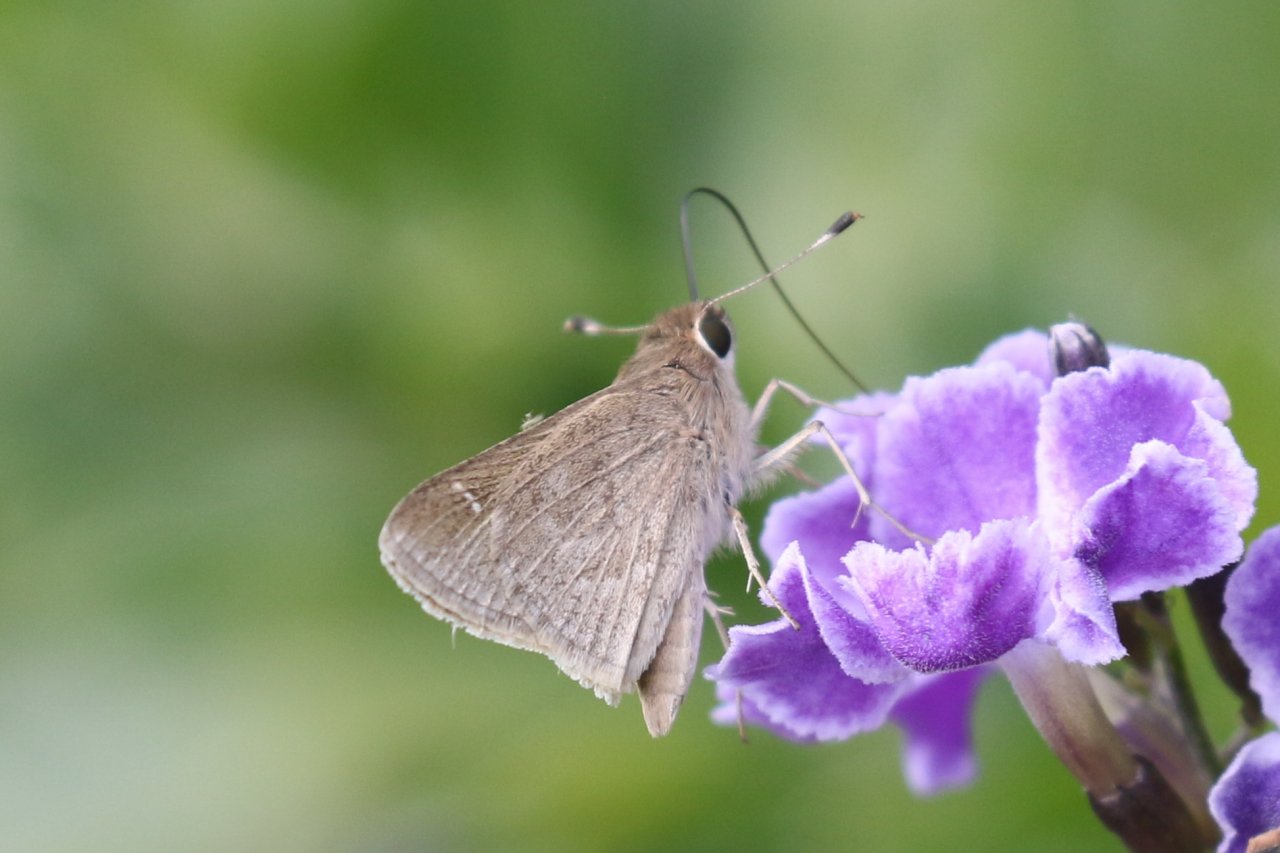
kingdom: Animalia
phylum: Arthropoda
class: Insecta
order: Lepidoptera
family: Hesperiidae
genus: Lerodea
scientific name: Lerodea eufala
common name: Eufala Skipper
